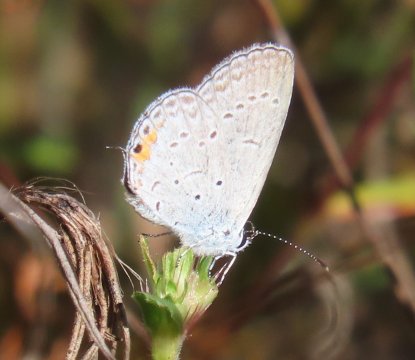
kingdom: Animalia
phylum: Arthropoda
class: Insecta
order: Lepidoptera
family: Lycaenidae
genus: Elkalyce
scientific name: Elkalyce comyntas
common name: Eastern Tailed-Blue
